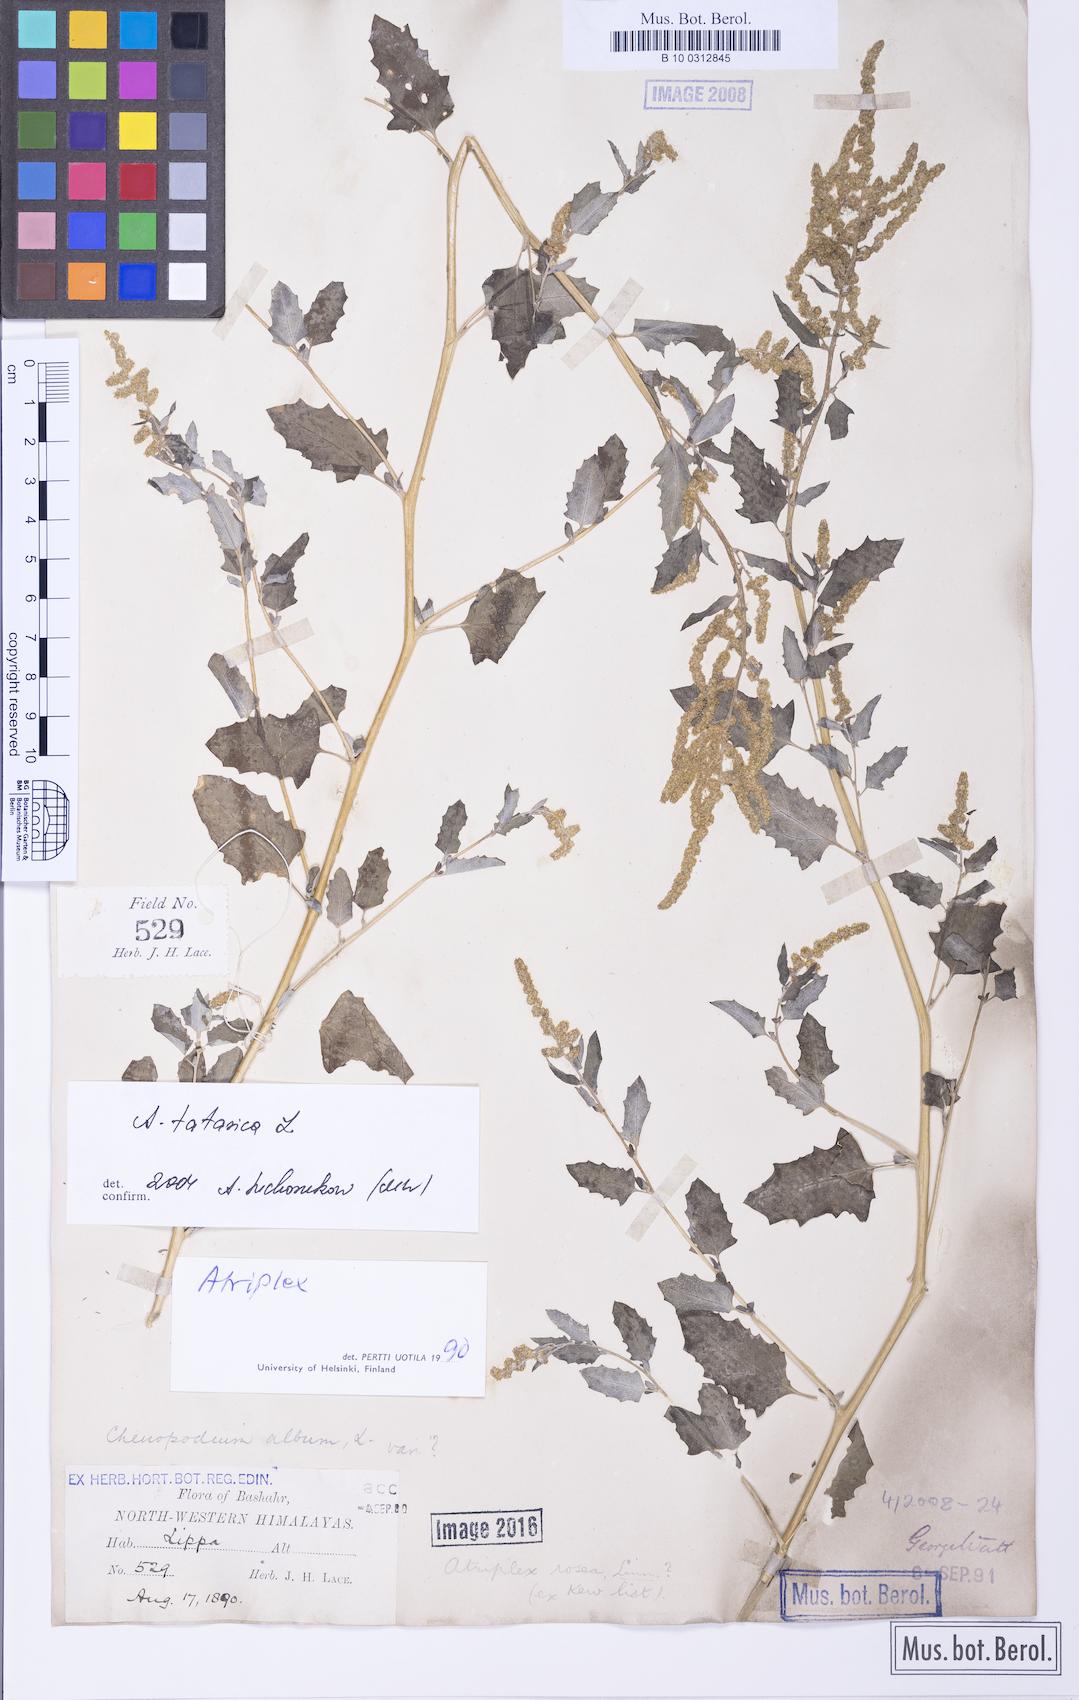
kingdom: Plantae
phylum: Tracheophyta
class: Magnoliopsida
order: Caryophyllales
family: Amaranthaceae
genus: Atriplex
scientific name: Atriplex tatarica
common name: Tatarian orache
